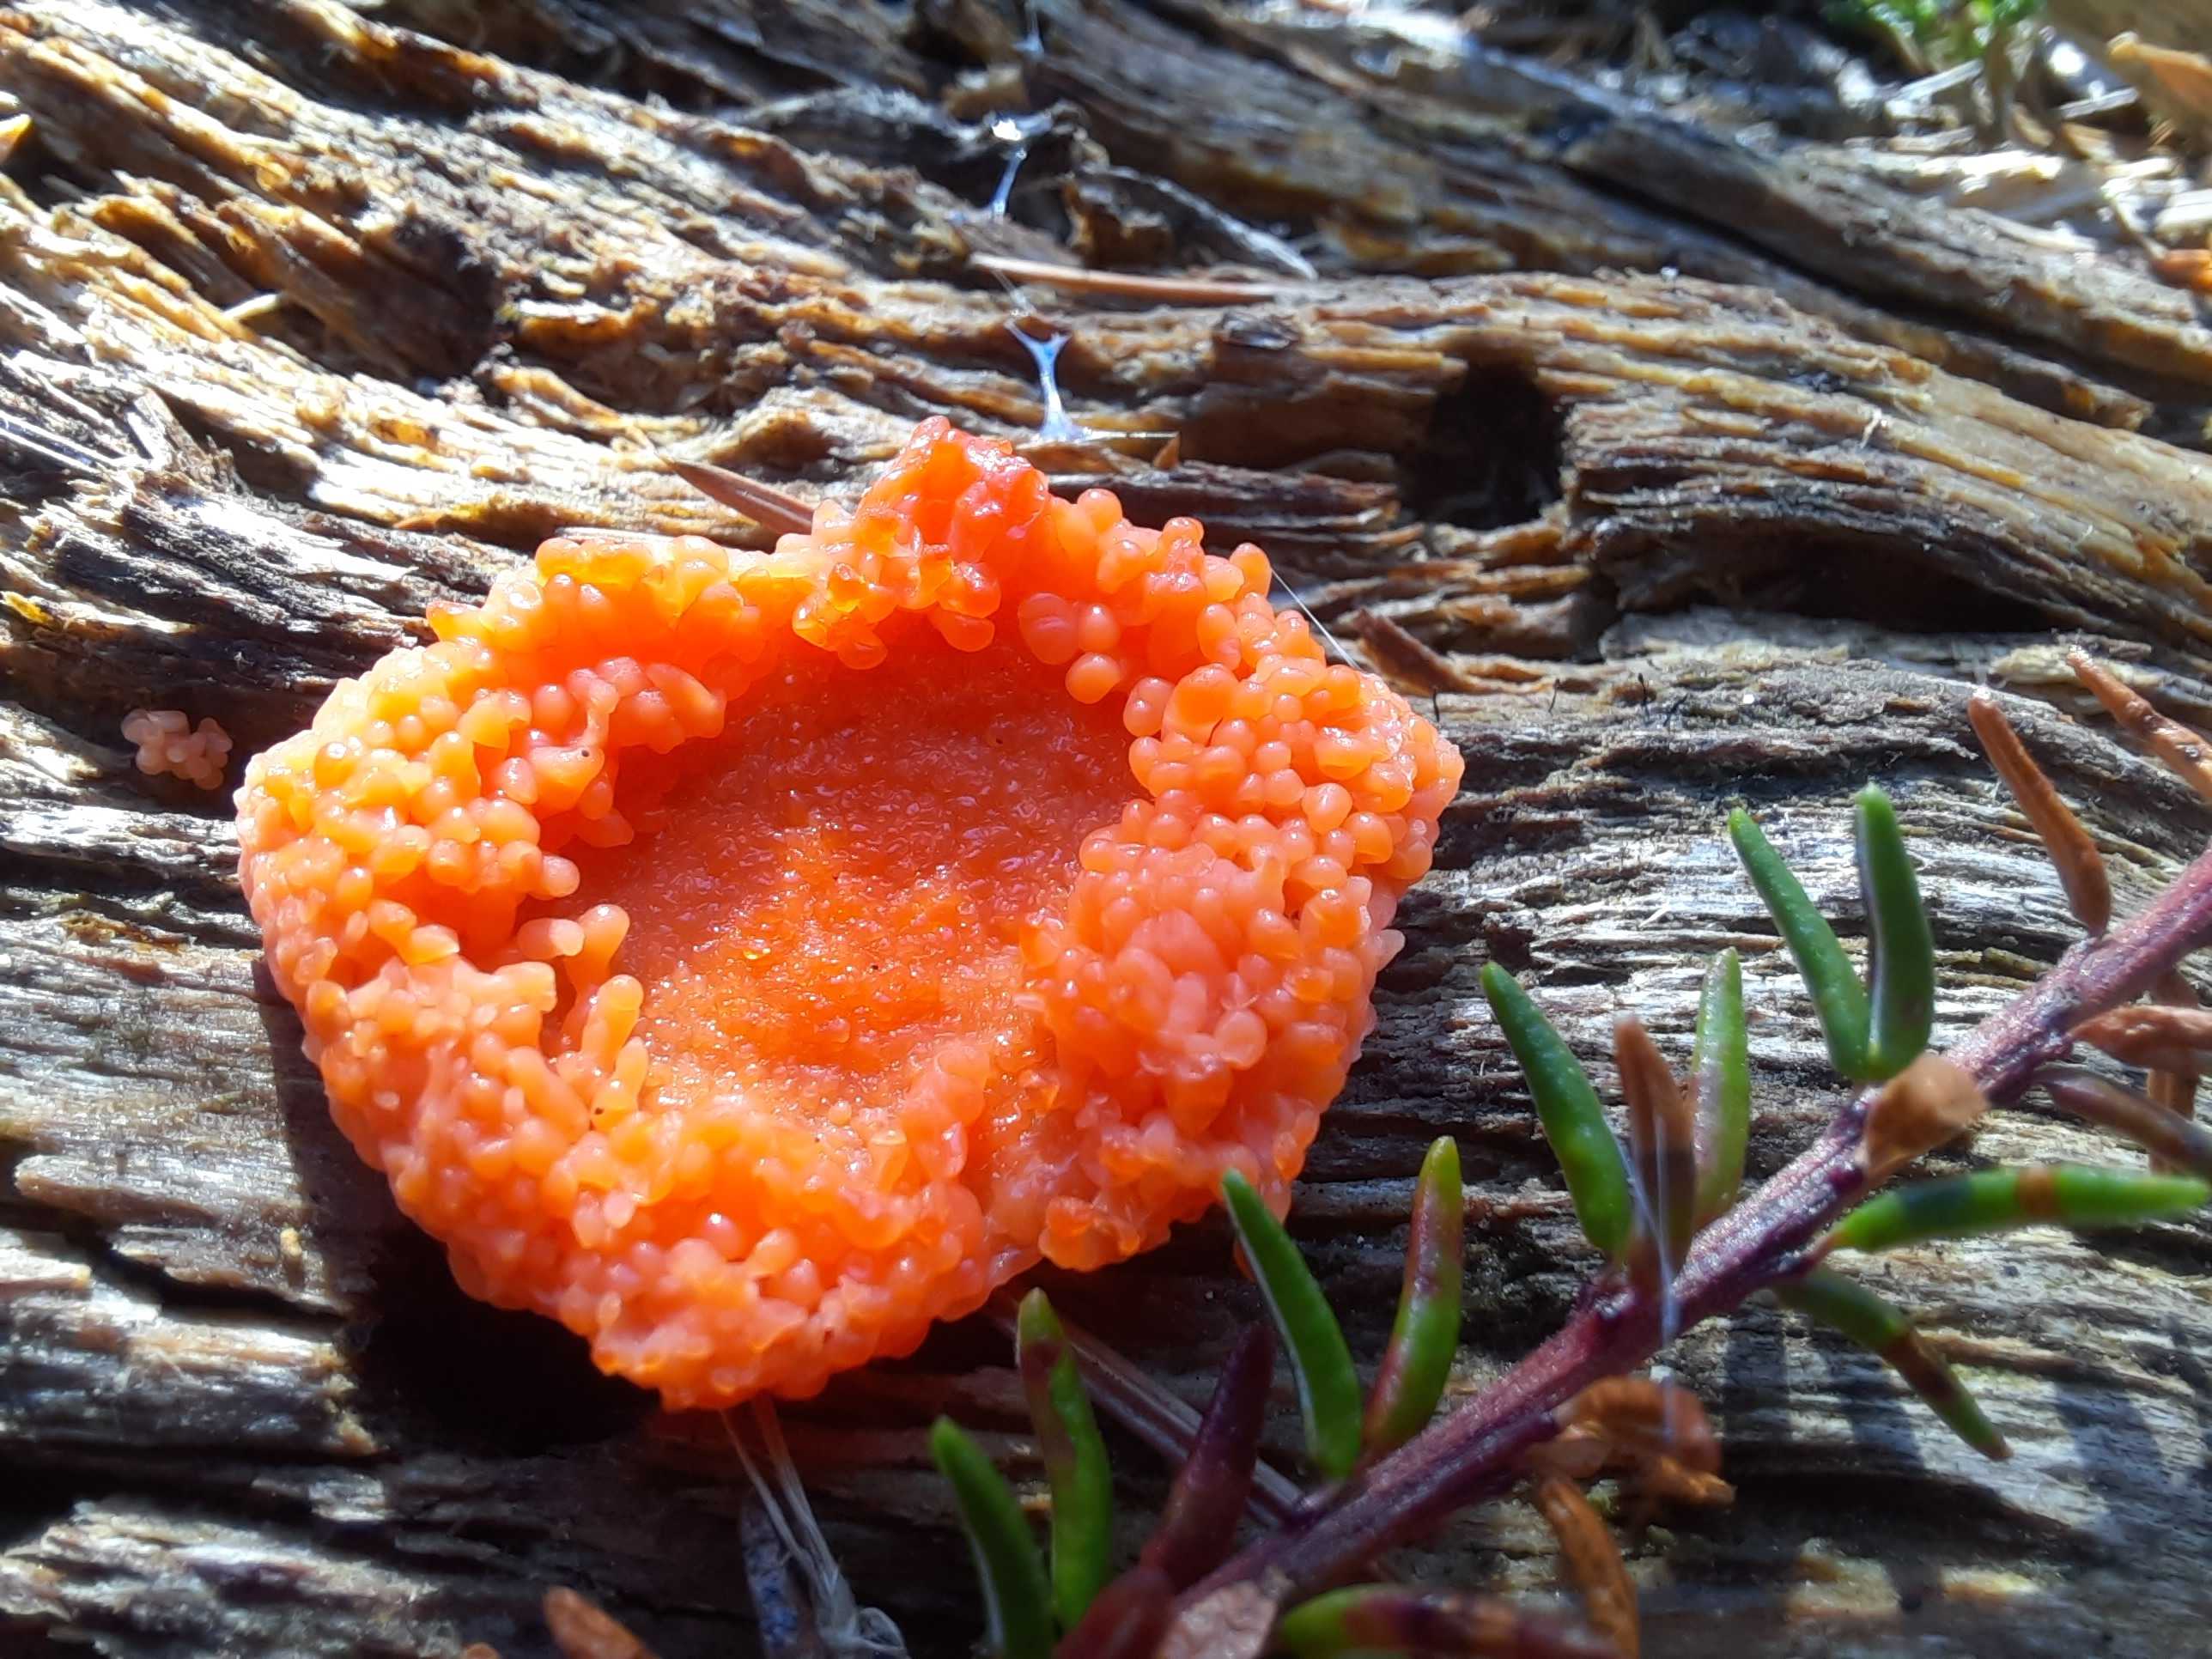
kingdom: Protozoa
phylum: Mycetozoa
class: Myxomycetes
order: Cribrariales
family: Tubiferaceae
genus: Tubifera
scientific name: Tubifera ferruginosa
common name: kanel-støvrør
